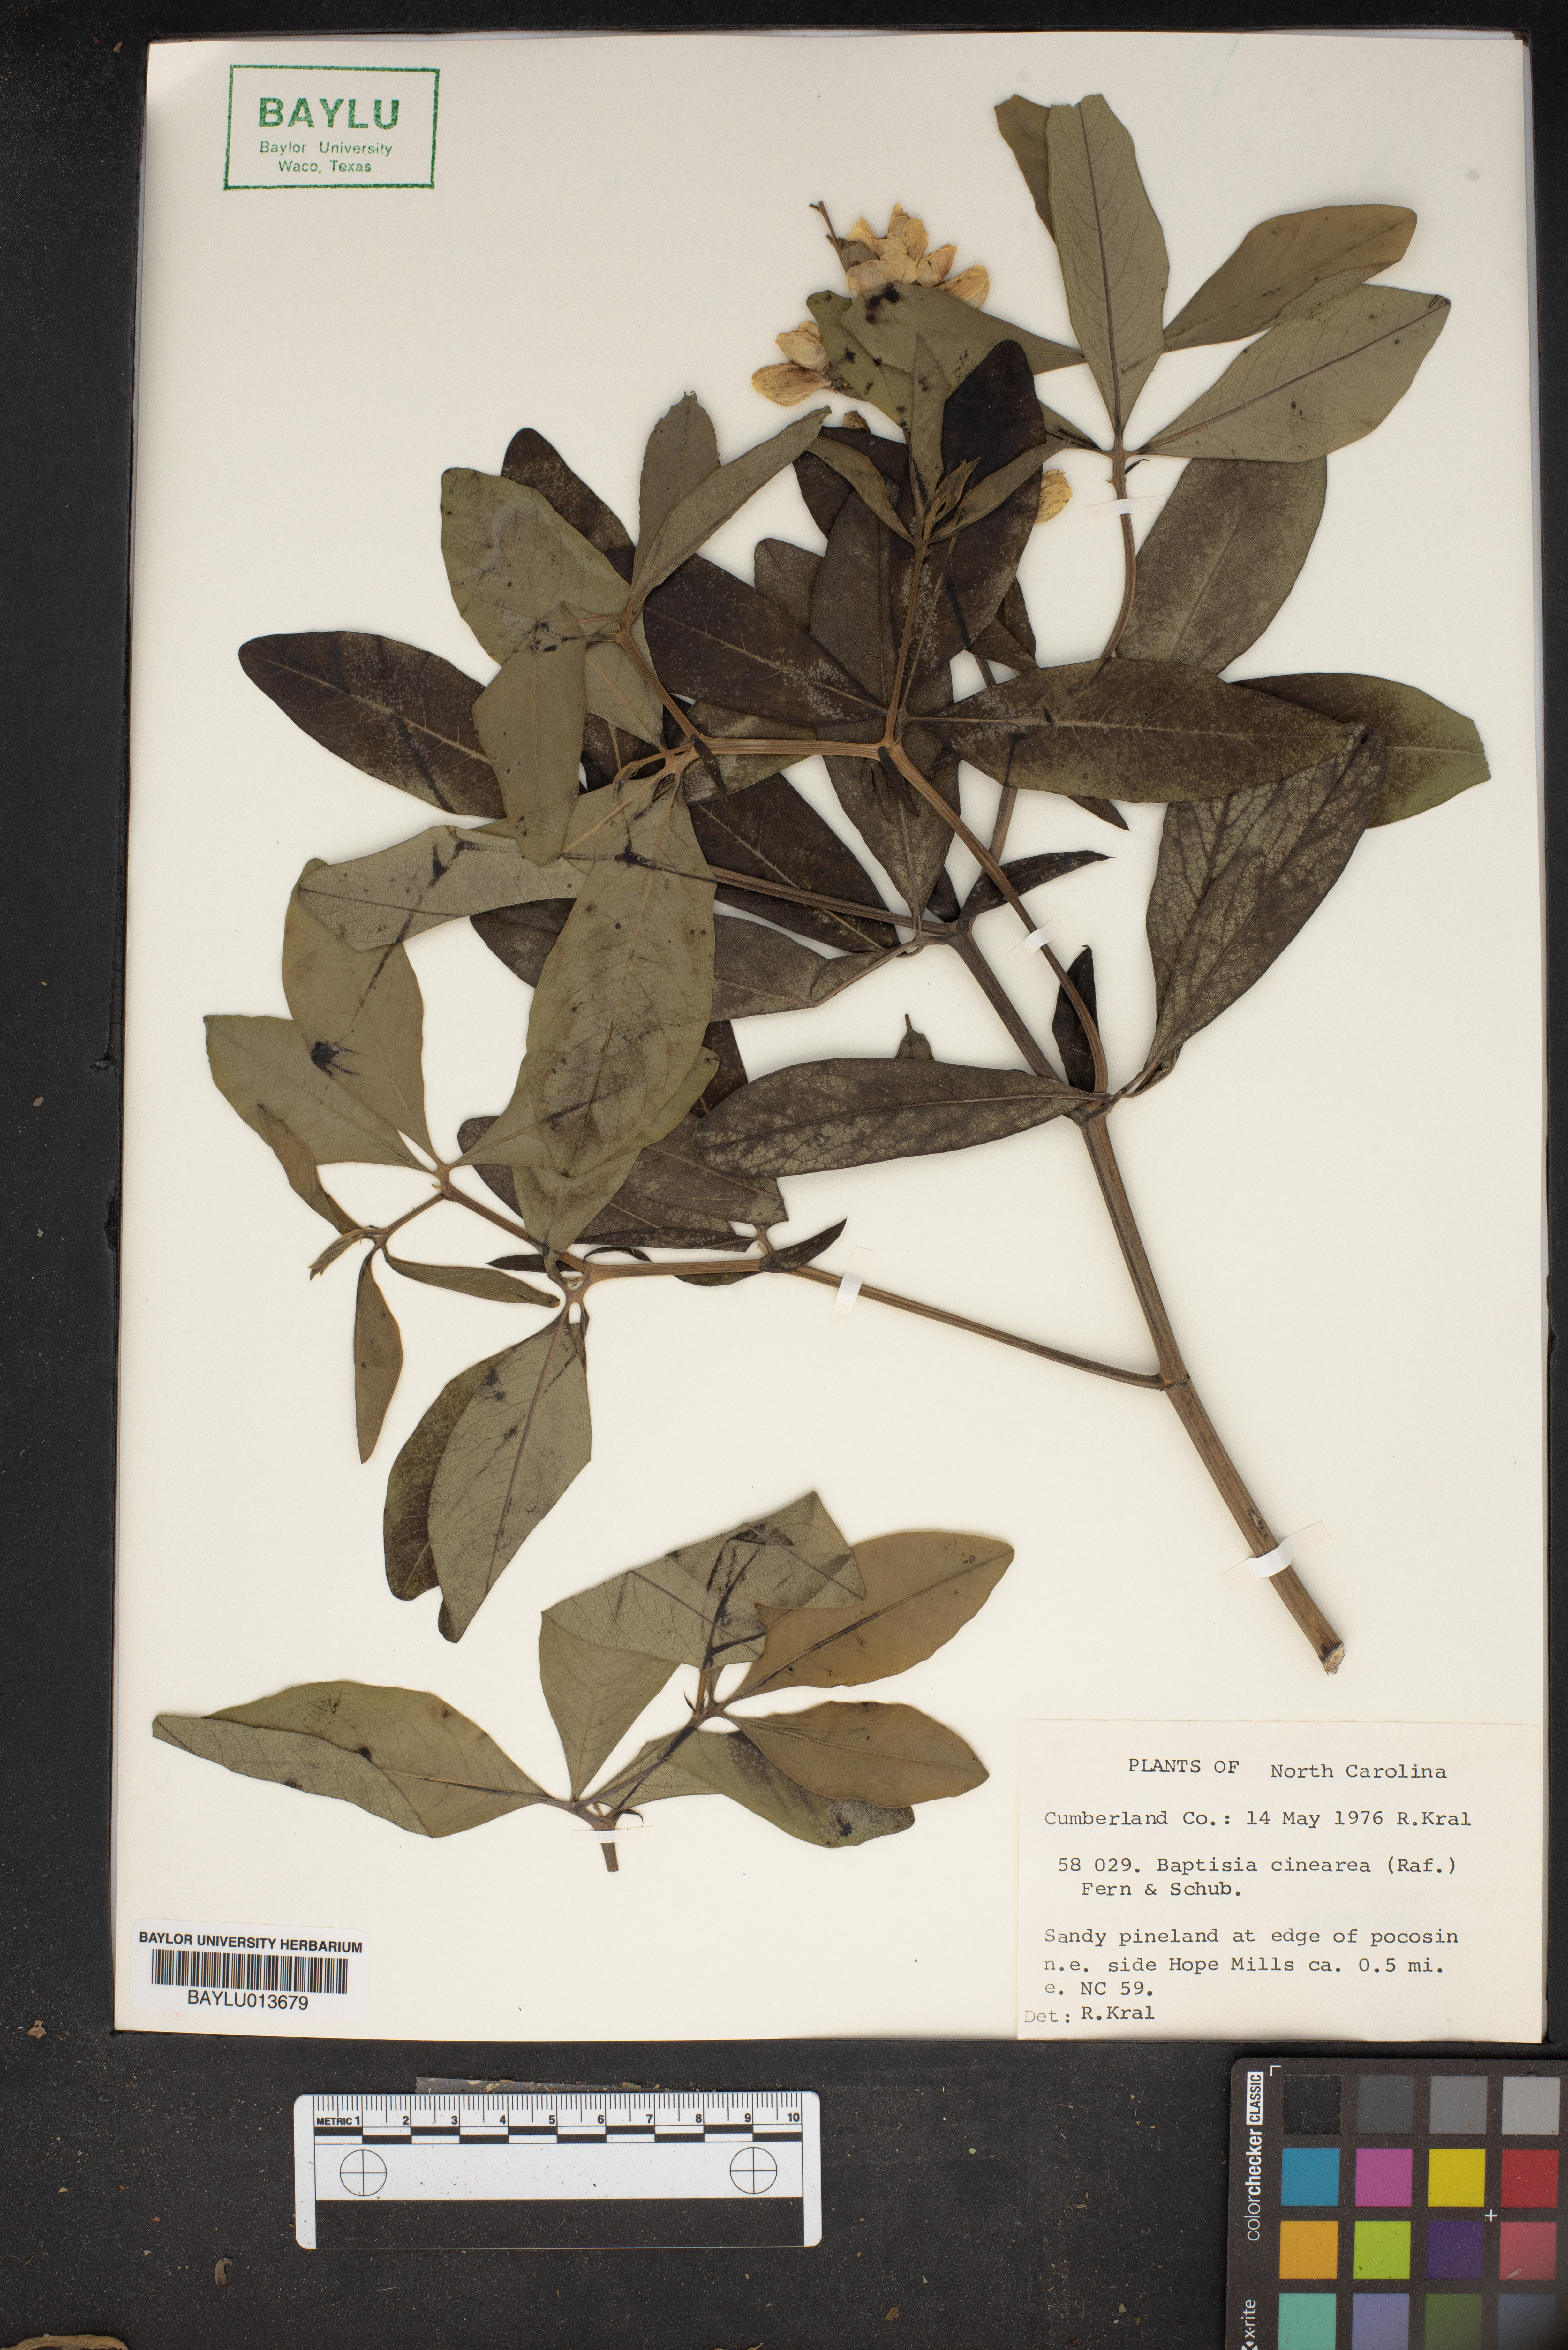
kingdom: Plantae
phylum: Tracheophyta
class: Magnoliopsida
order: Fabales
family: Fabaceae
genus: Baptisia
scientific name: Baptisia cinerea
